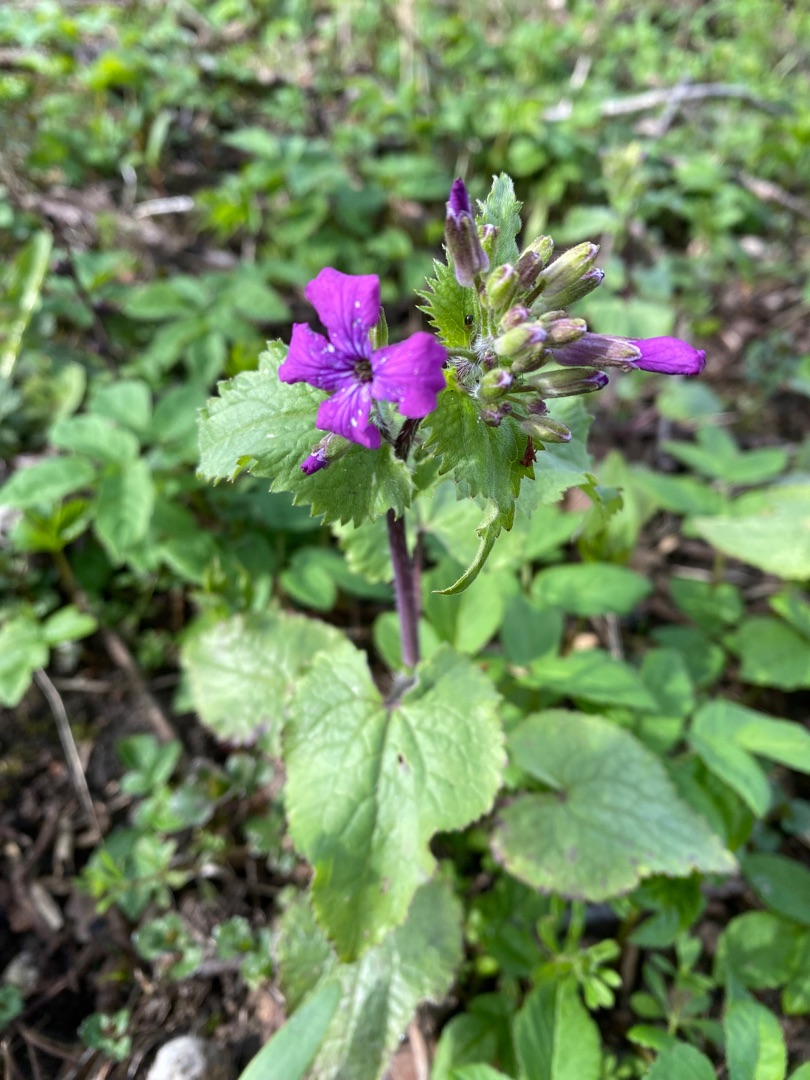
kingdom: Plantae
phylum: Tracheophyta
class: Magnoliopsida
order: Brassicales
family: Brassicaceae
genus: Lunaria
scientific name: Lunaria annua
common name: Judaspenge
